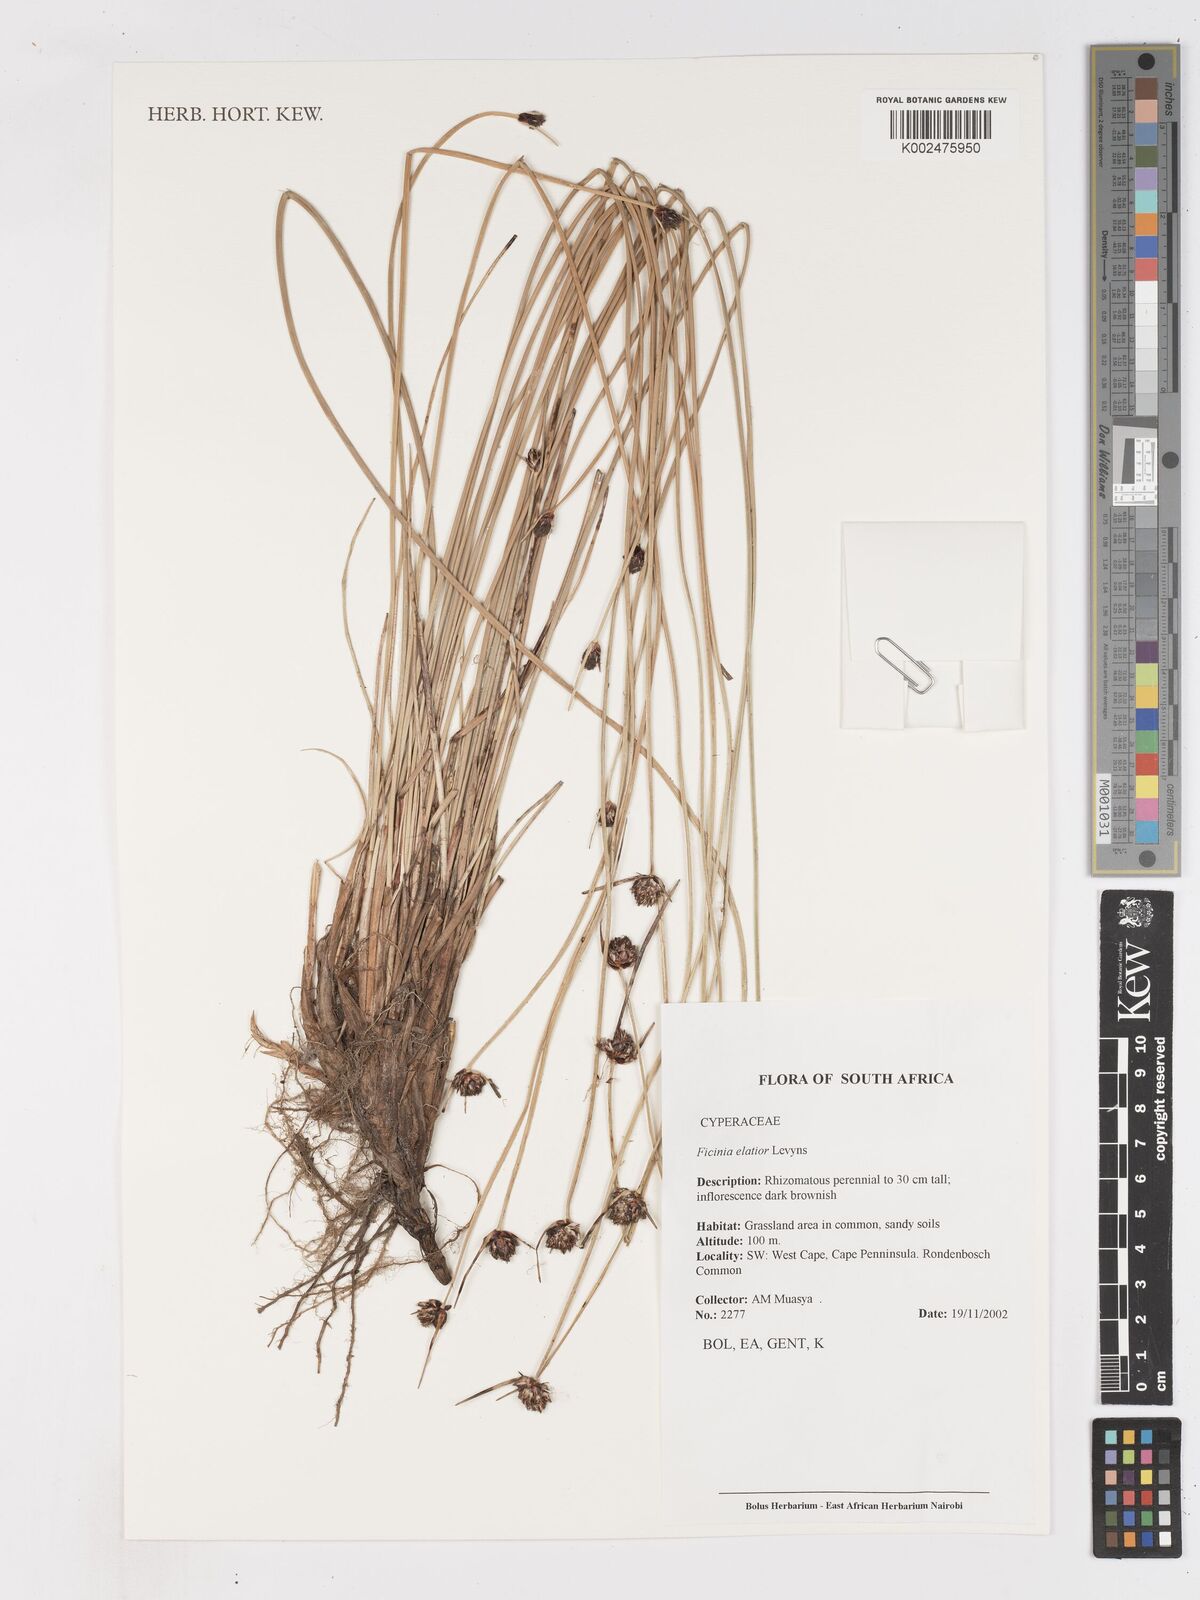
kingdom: Plantae
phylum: Tracheophyta
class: Liliopsida
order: Poales
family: Cyperaceae
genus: Ficinia
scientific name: Ficinia elatior
